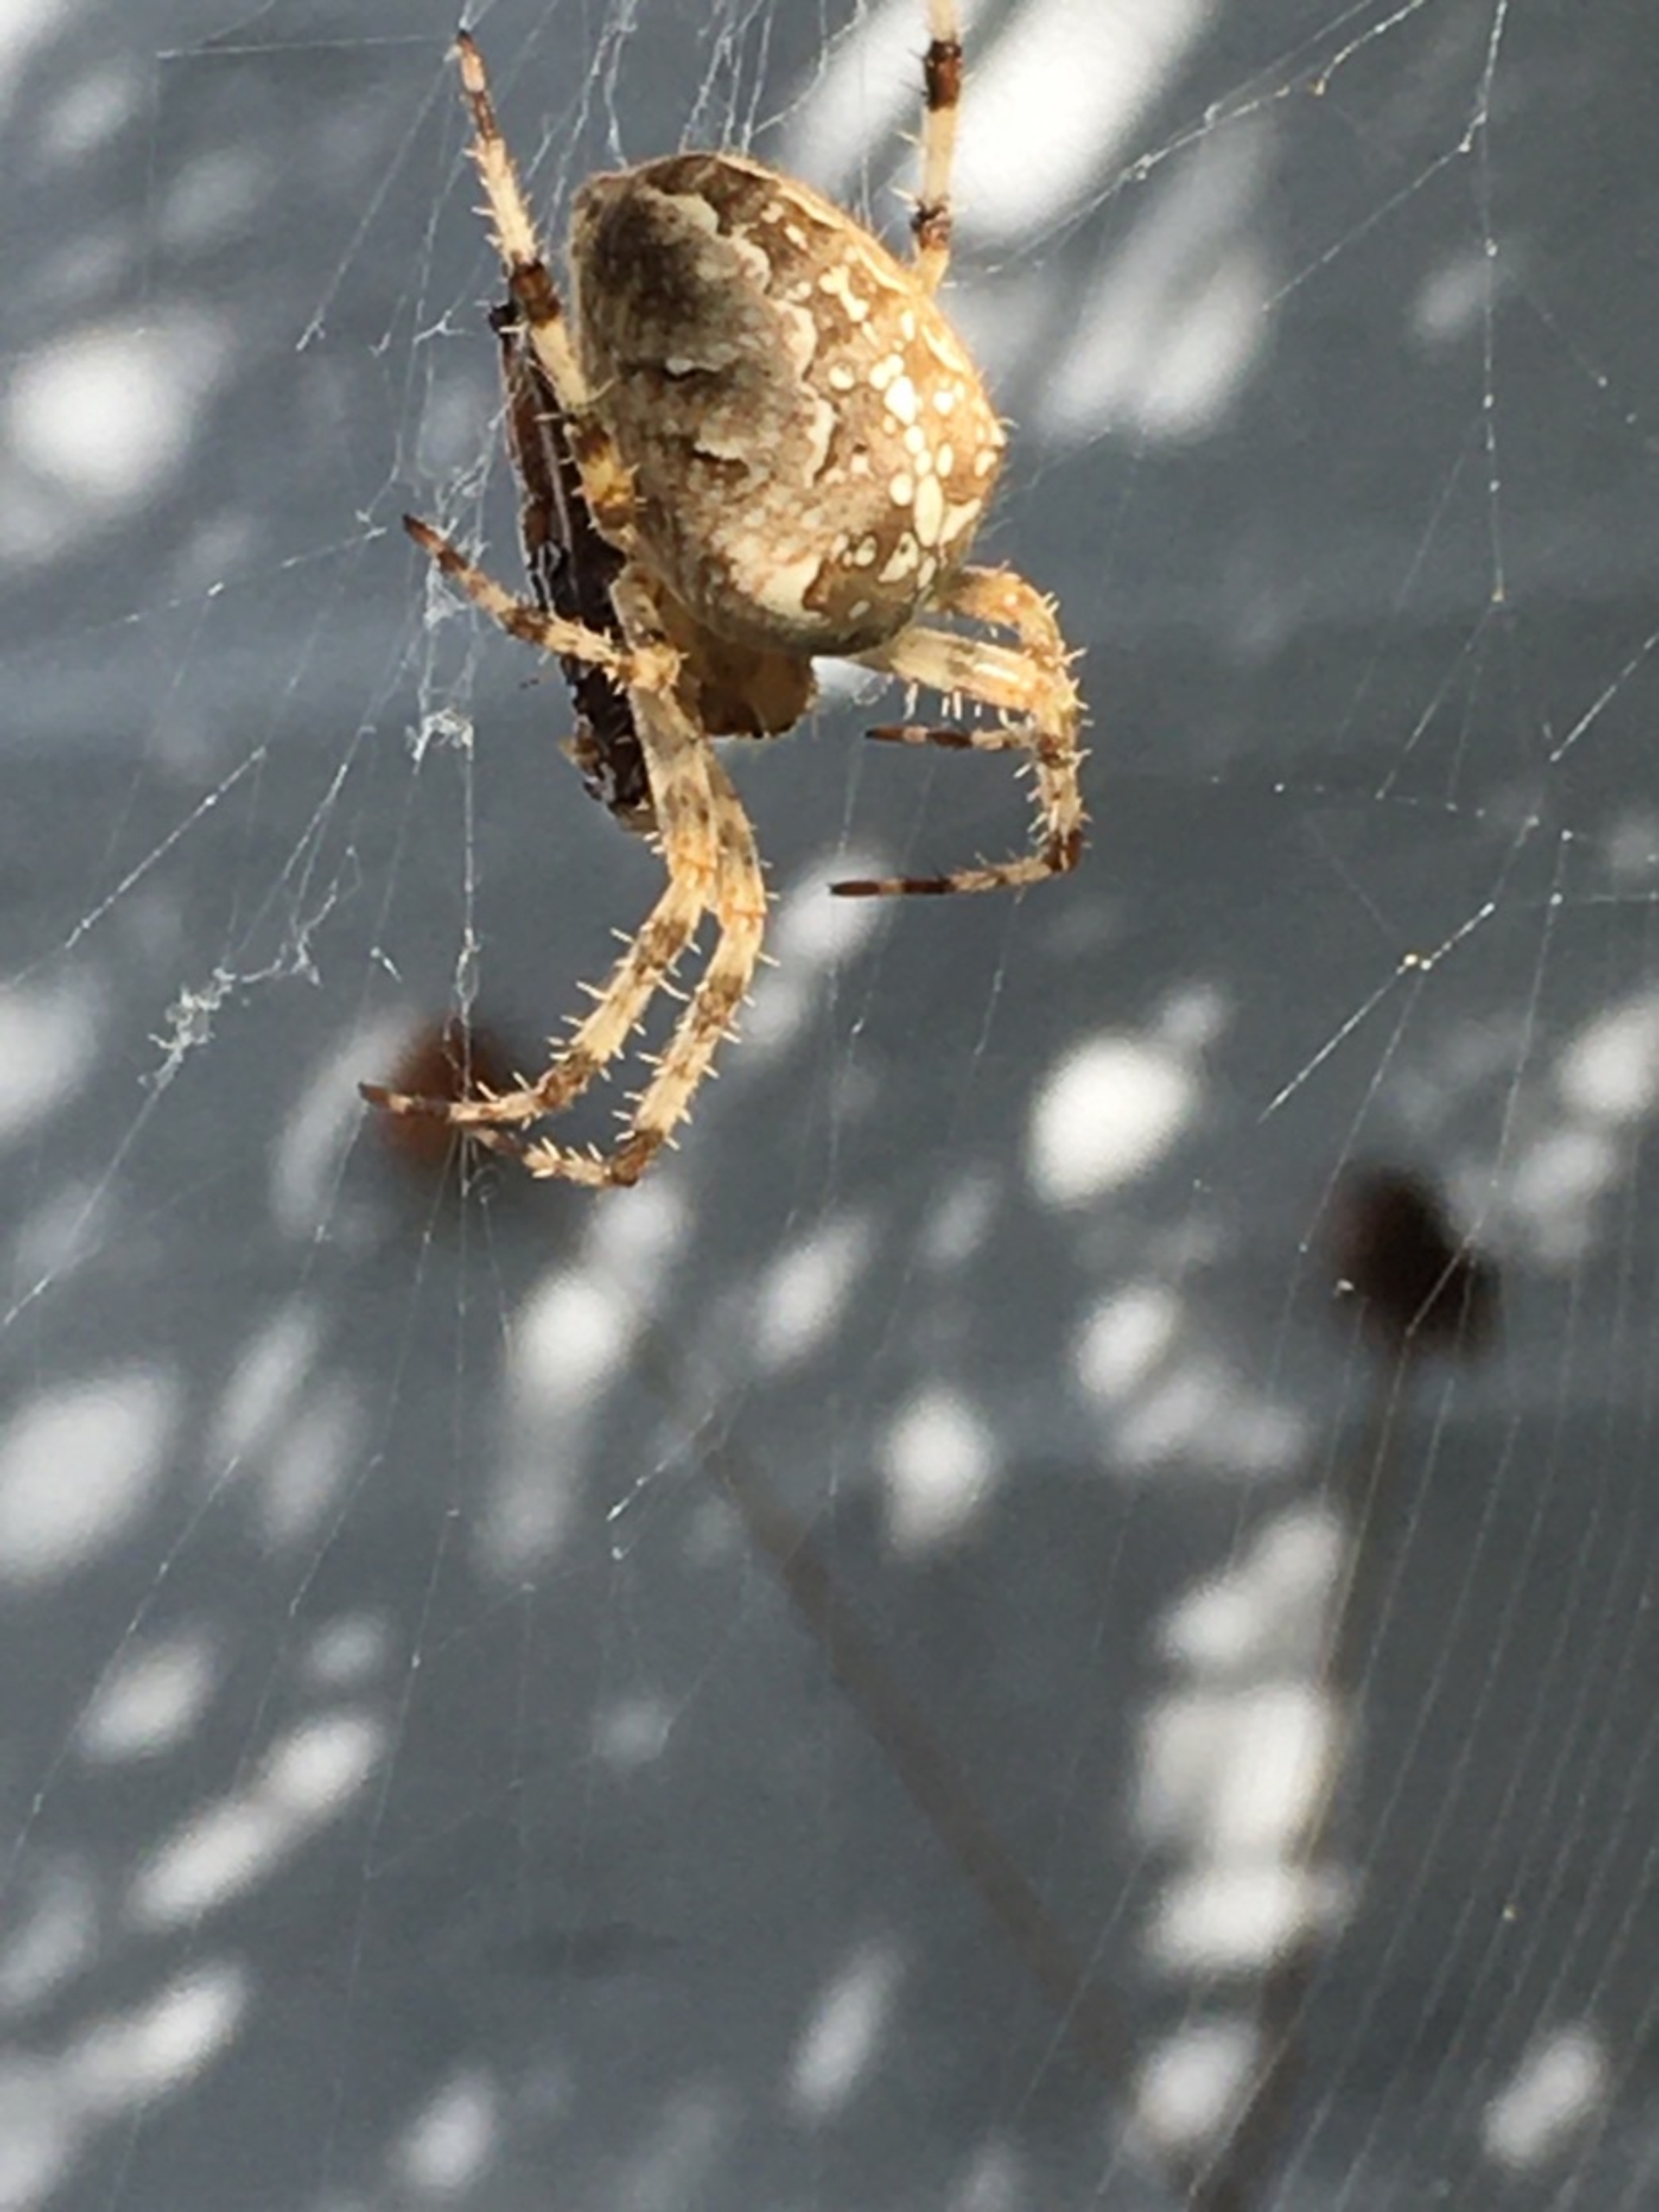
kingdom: Animalia
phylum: Arthropoda
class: Arachnida
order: Araneae
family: Araneidae
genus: Araneus
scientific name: Araneus diadematus
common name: Korsedderkop
